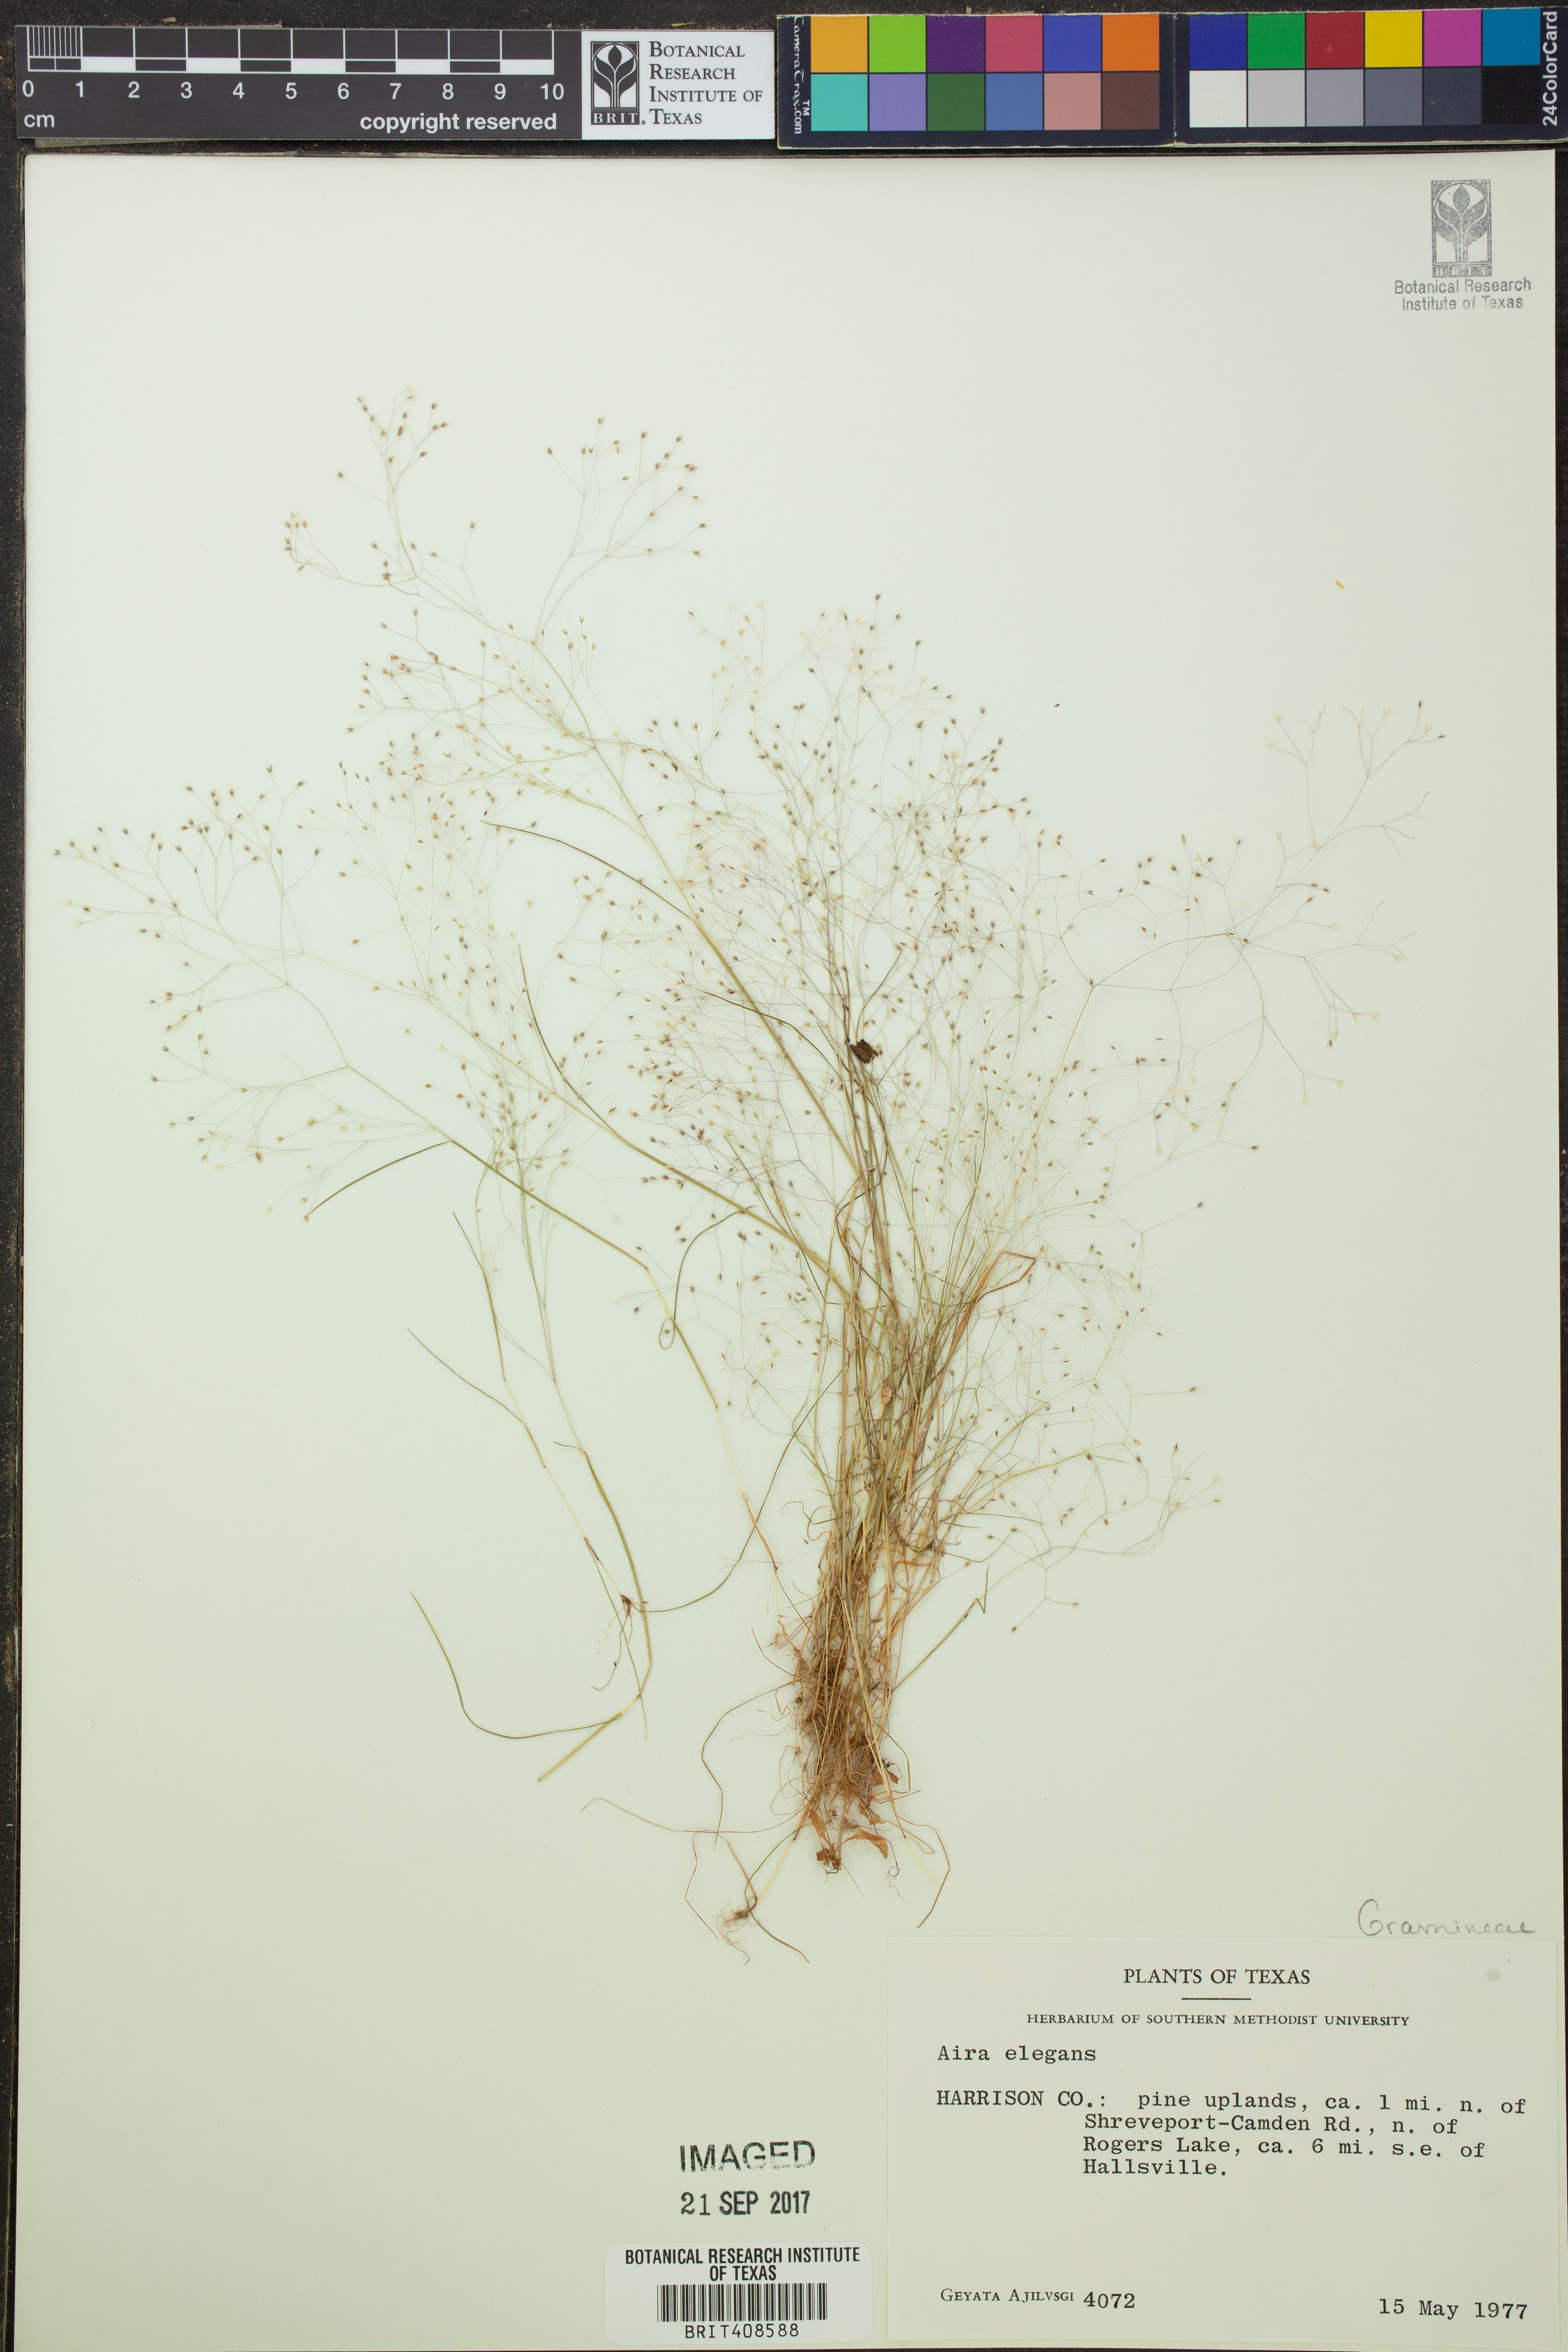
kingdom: Plantae
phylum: Tracheophyta
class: Liliopsida
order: Poales
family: Poaceae
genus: Aira
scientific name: Aira elegans
